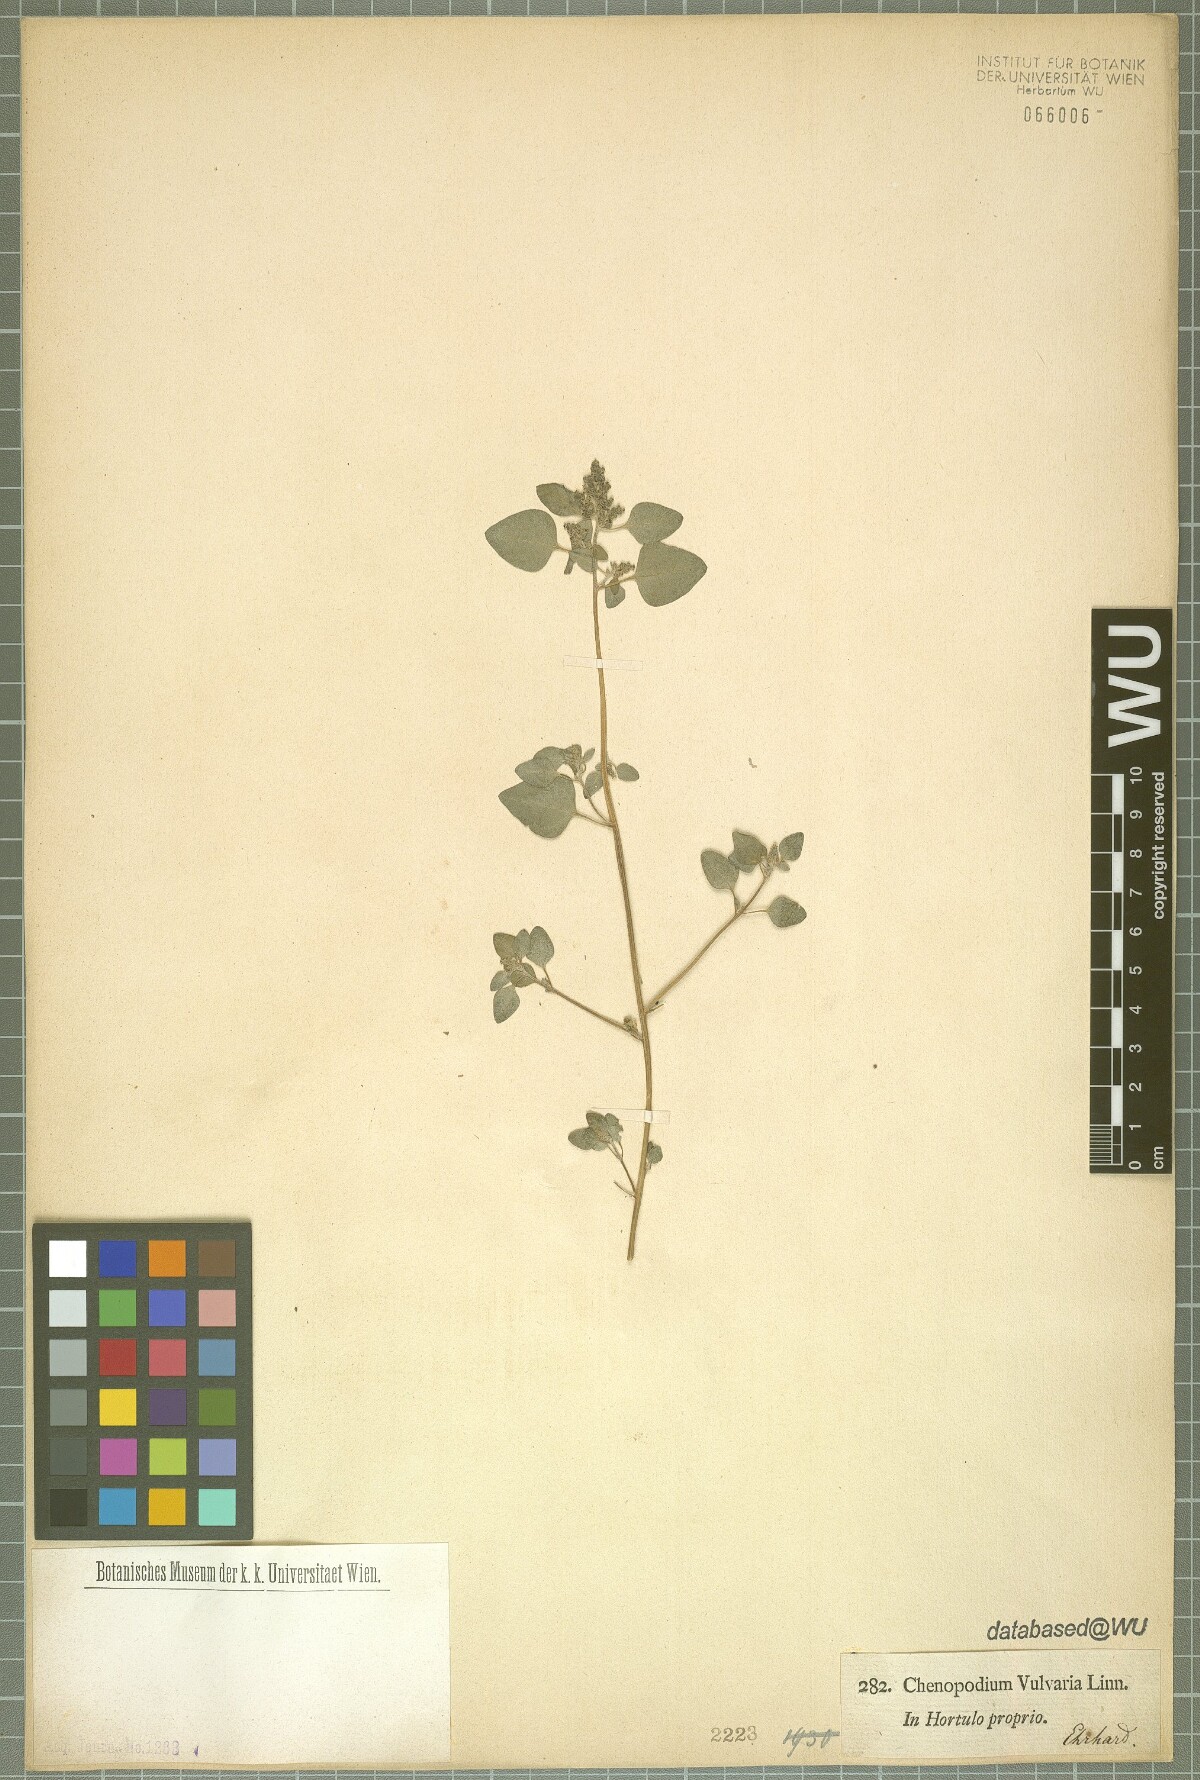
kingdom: Plantae
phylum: Tracheophyta
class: Magnoliopsida
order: Caryophyllales
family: Amaranthaceae
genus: Chenopodium
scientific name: Chenopodium vulvaria
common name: Stinking goosefoot
